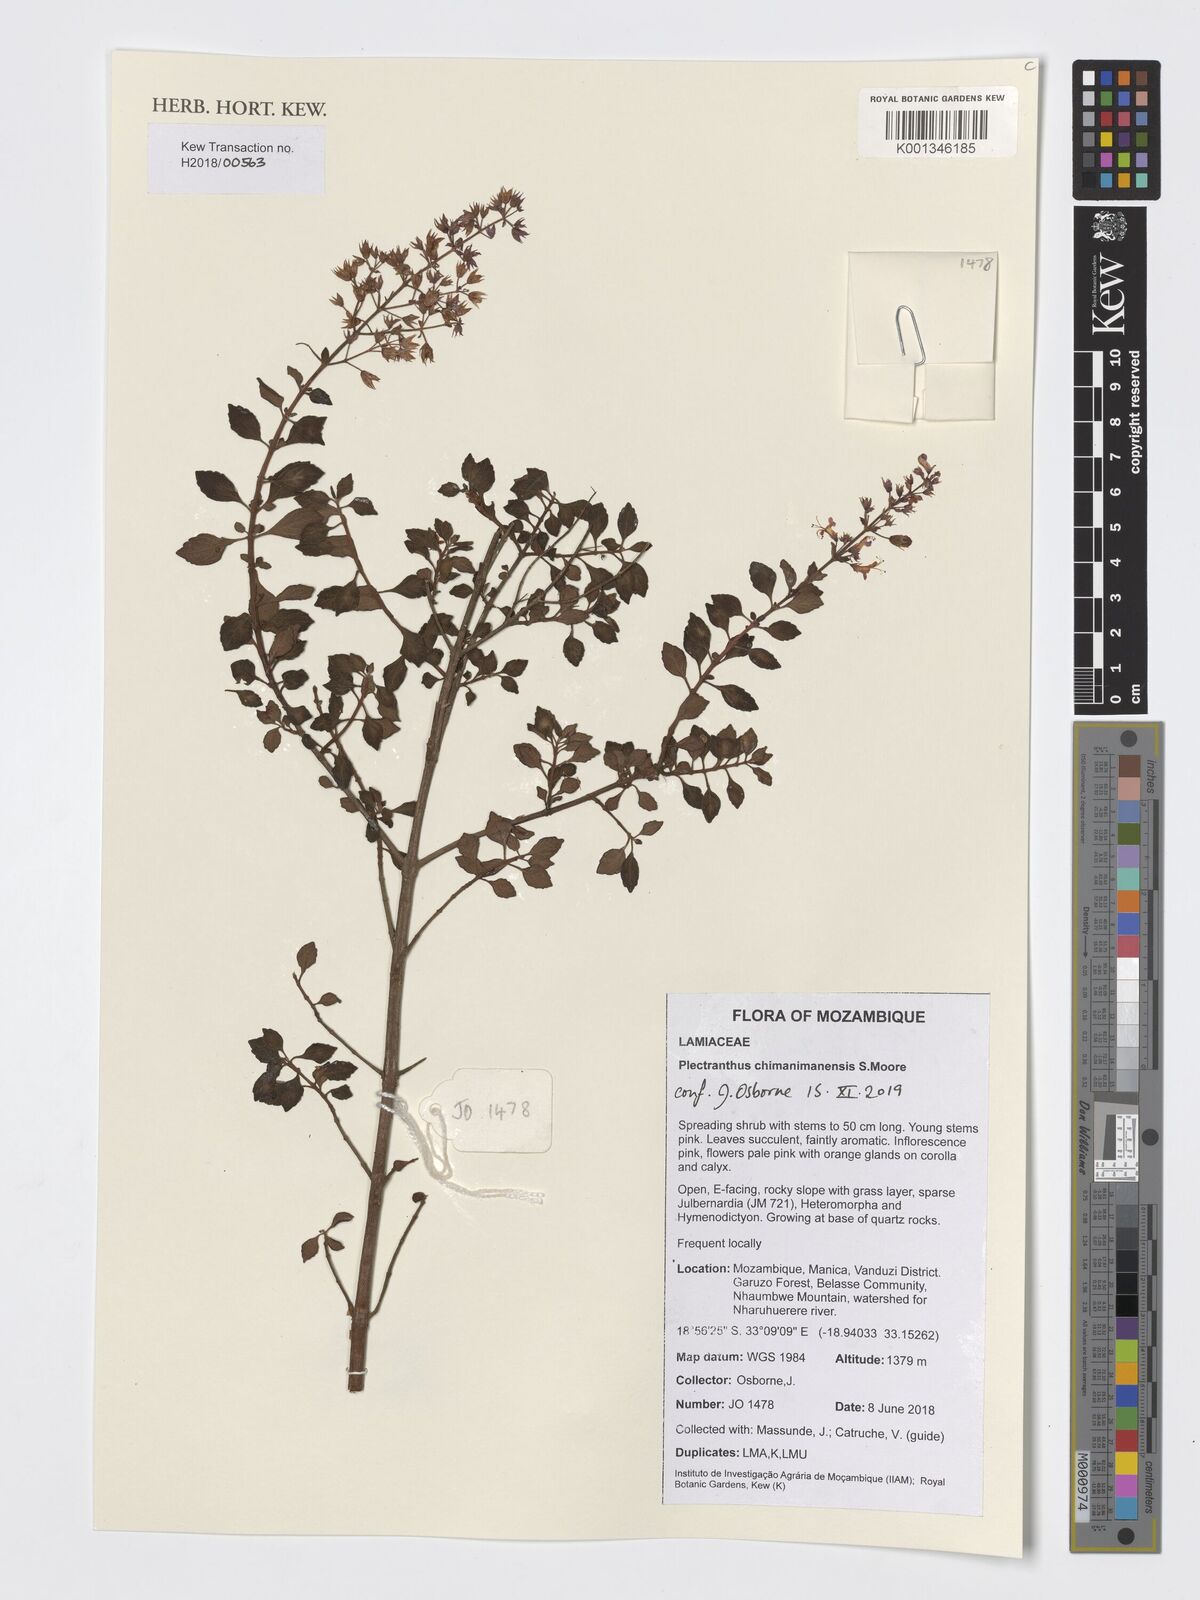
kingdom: Plantae
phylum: Tracheophyta
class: Magnoliopsida
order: Lamiales
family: Lamiaceae
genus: Plectranthus
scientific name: Plectranthus chimanimanensis
